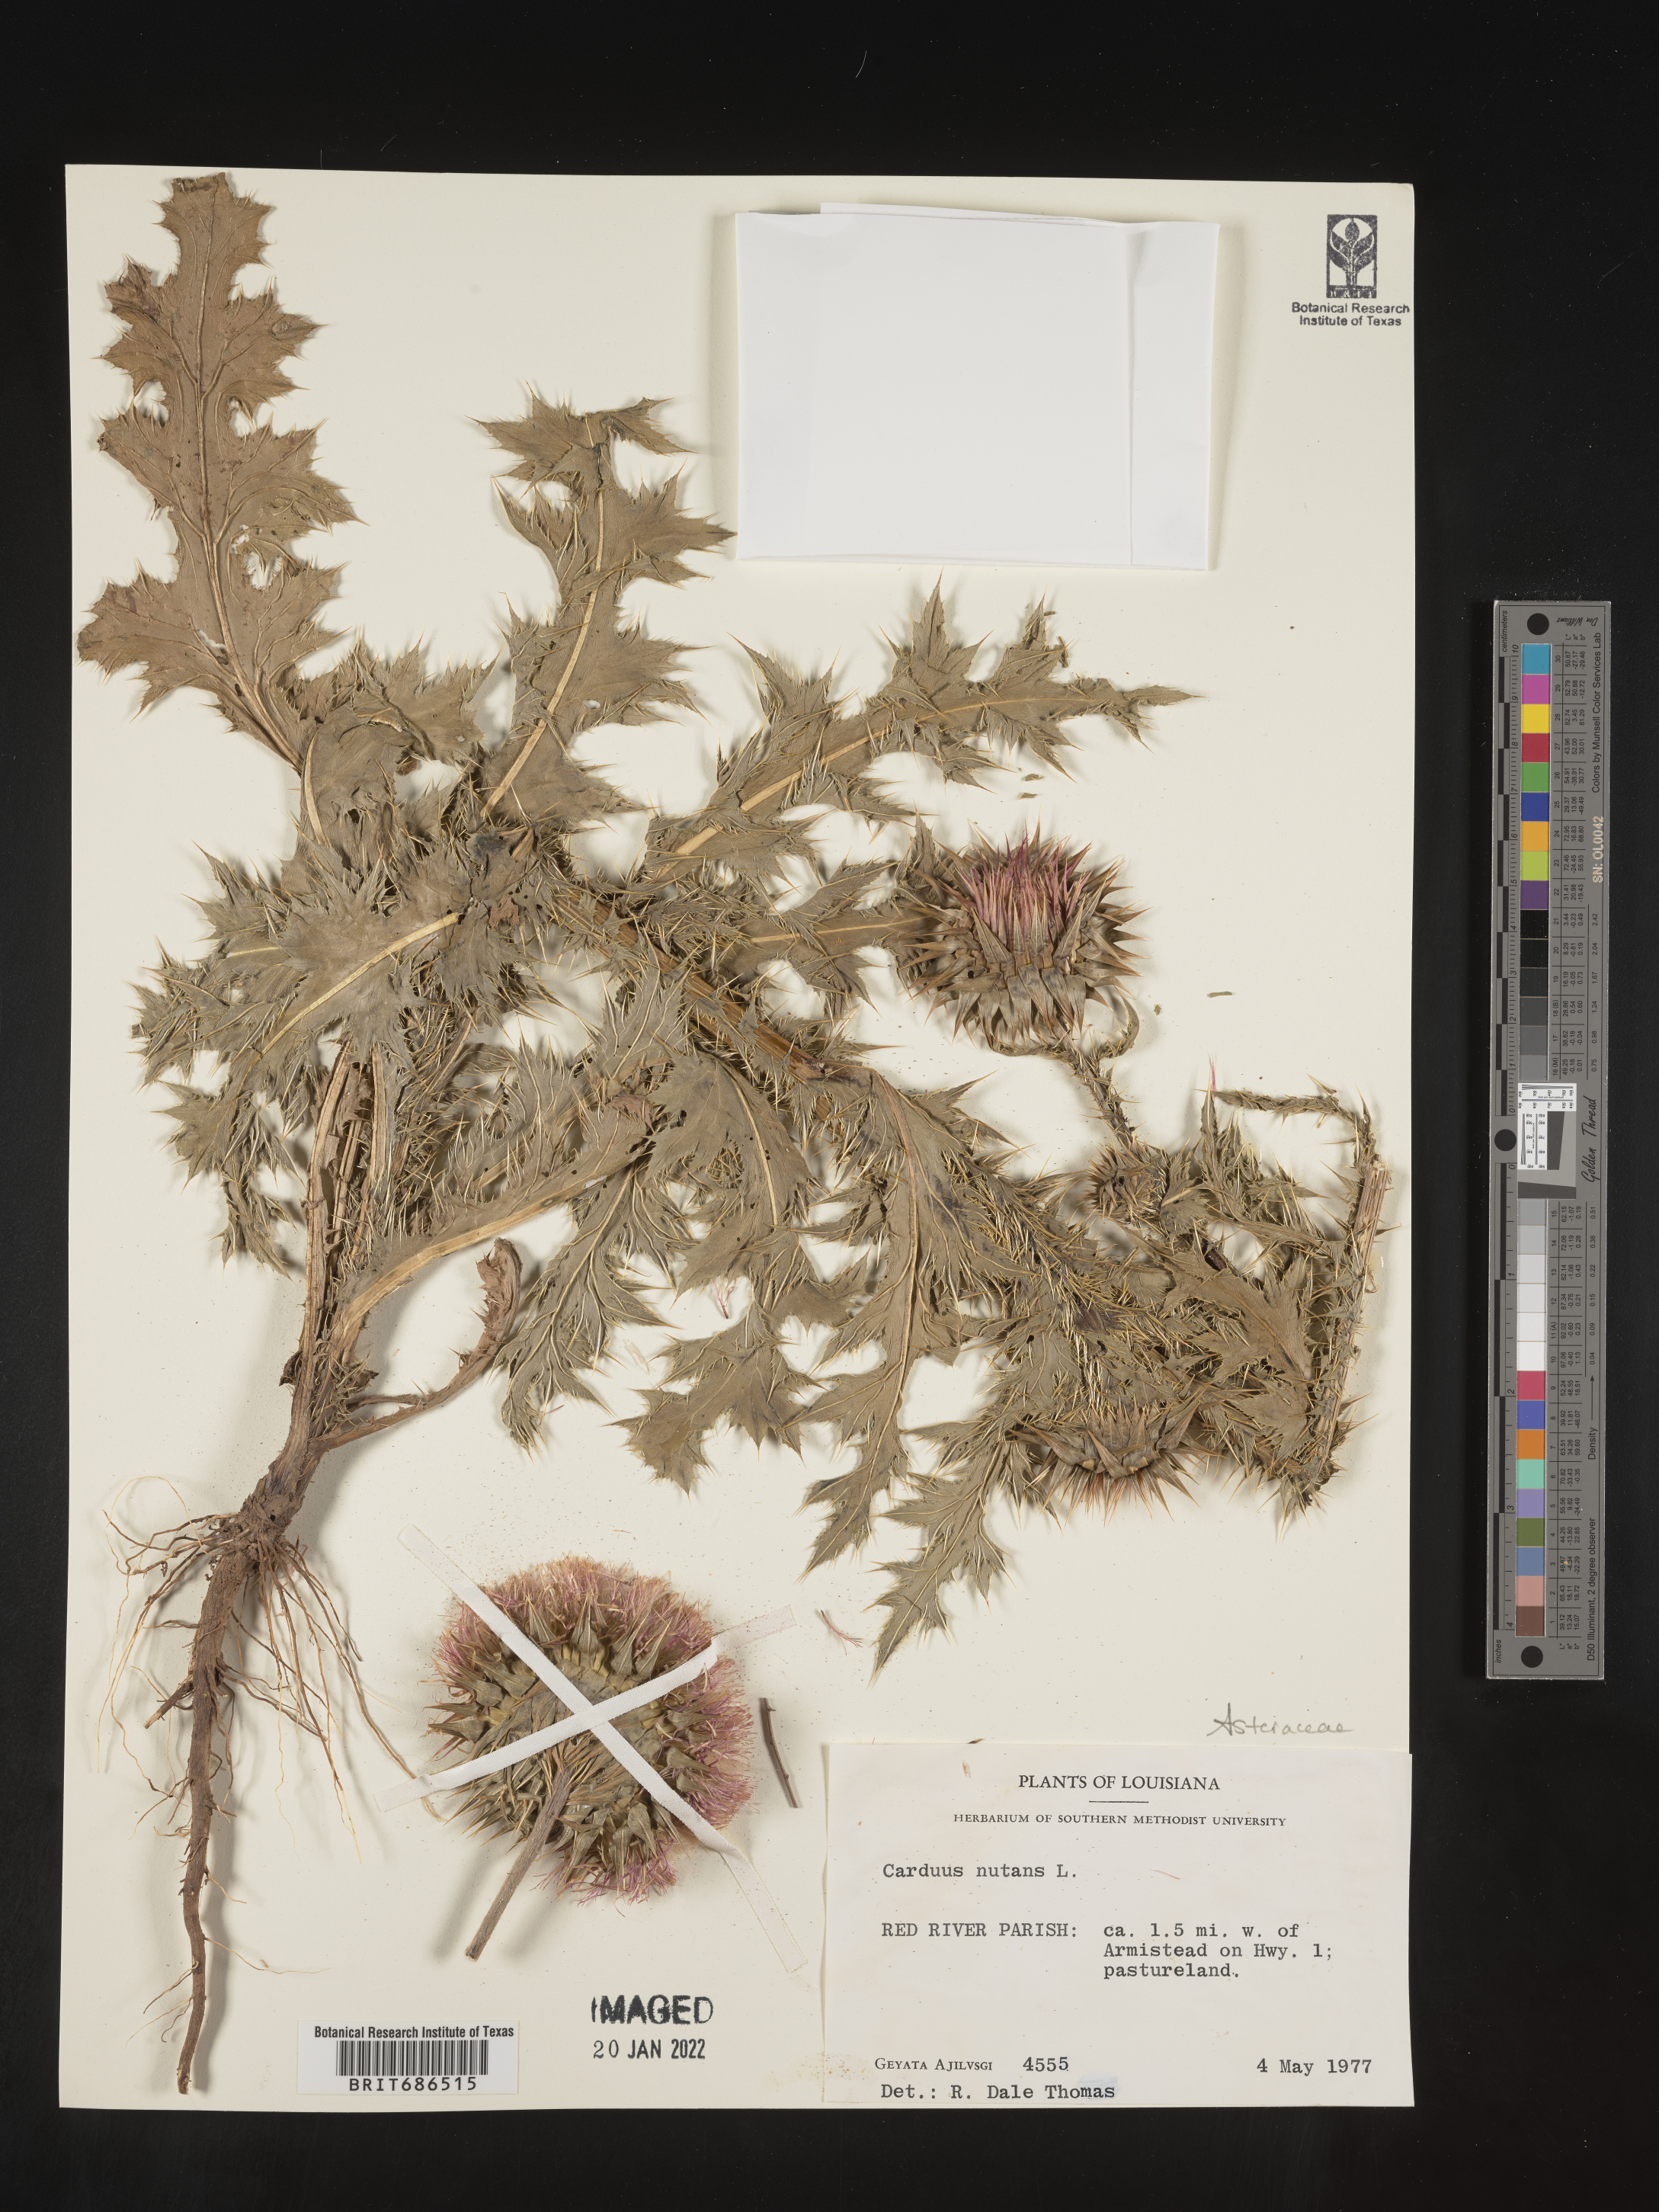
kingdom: Plantae
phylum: Tracheophyta
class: Magnoliopsida
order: Asterales
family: Asteraceae
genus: Carduus
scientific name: Carduus nutans
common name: Musk thistle
